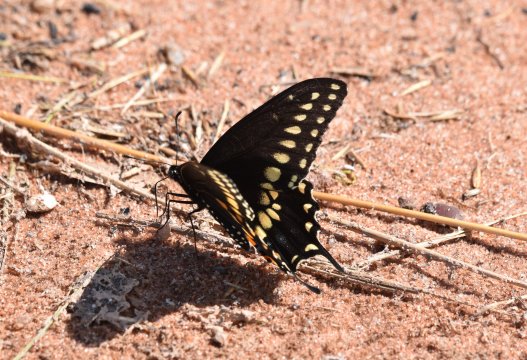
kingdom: Animalia
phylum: Arthropoda
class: Insecta
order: Lepidoptera
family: Papilionidae
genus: Papilio
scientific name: Papilio polyxenes
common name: Black Swallowtail
